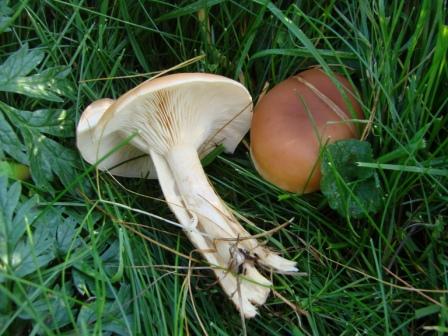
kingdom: Fungi
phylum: Basidiomycota
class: Agaricomycetes
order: Agaricales
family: Tricholomataceae
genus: Infundibulicybe
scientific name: Infundibulicybe gibba
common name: almindelig tragthat
